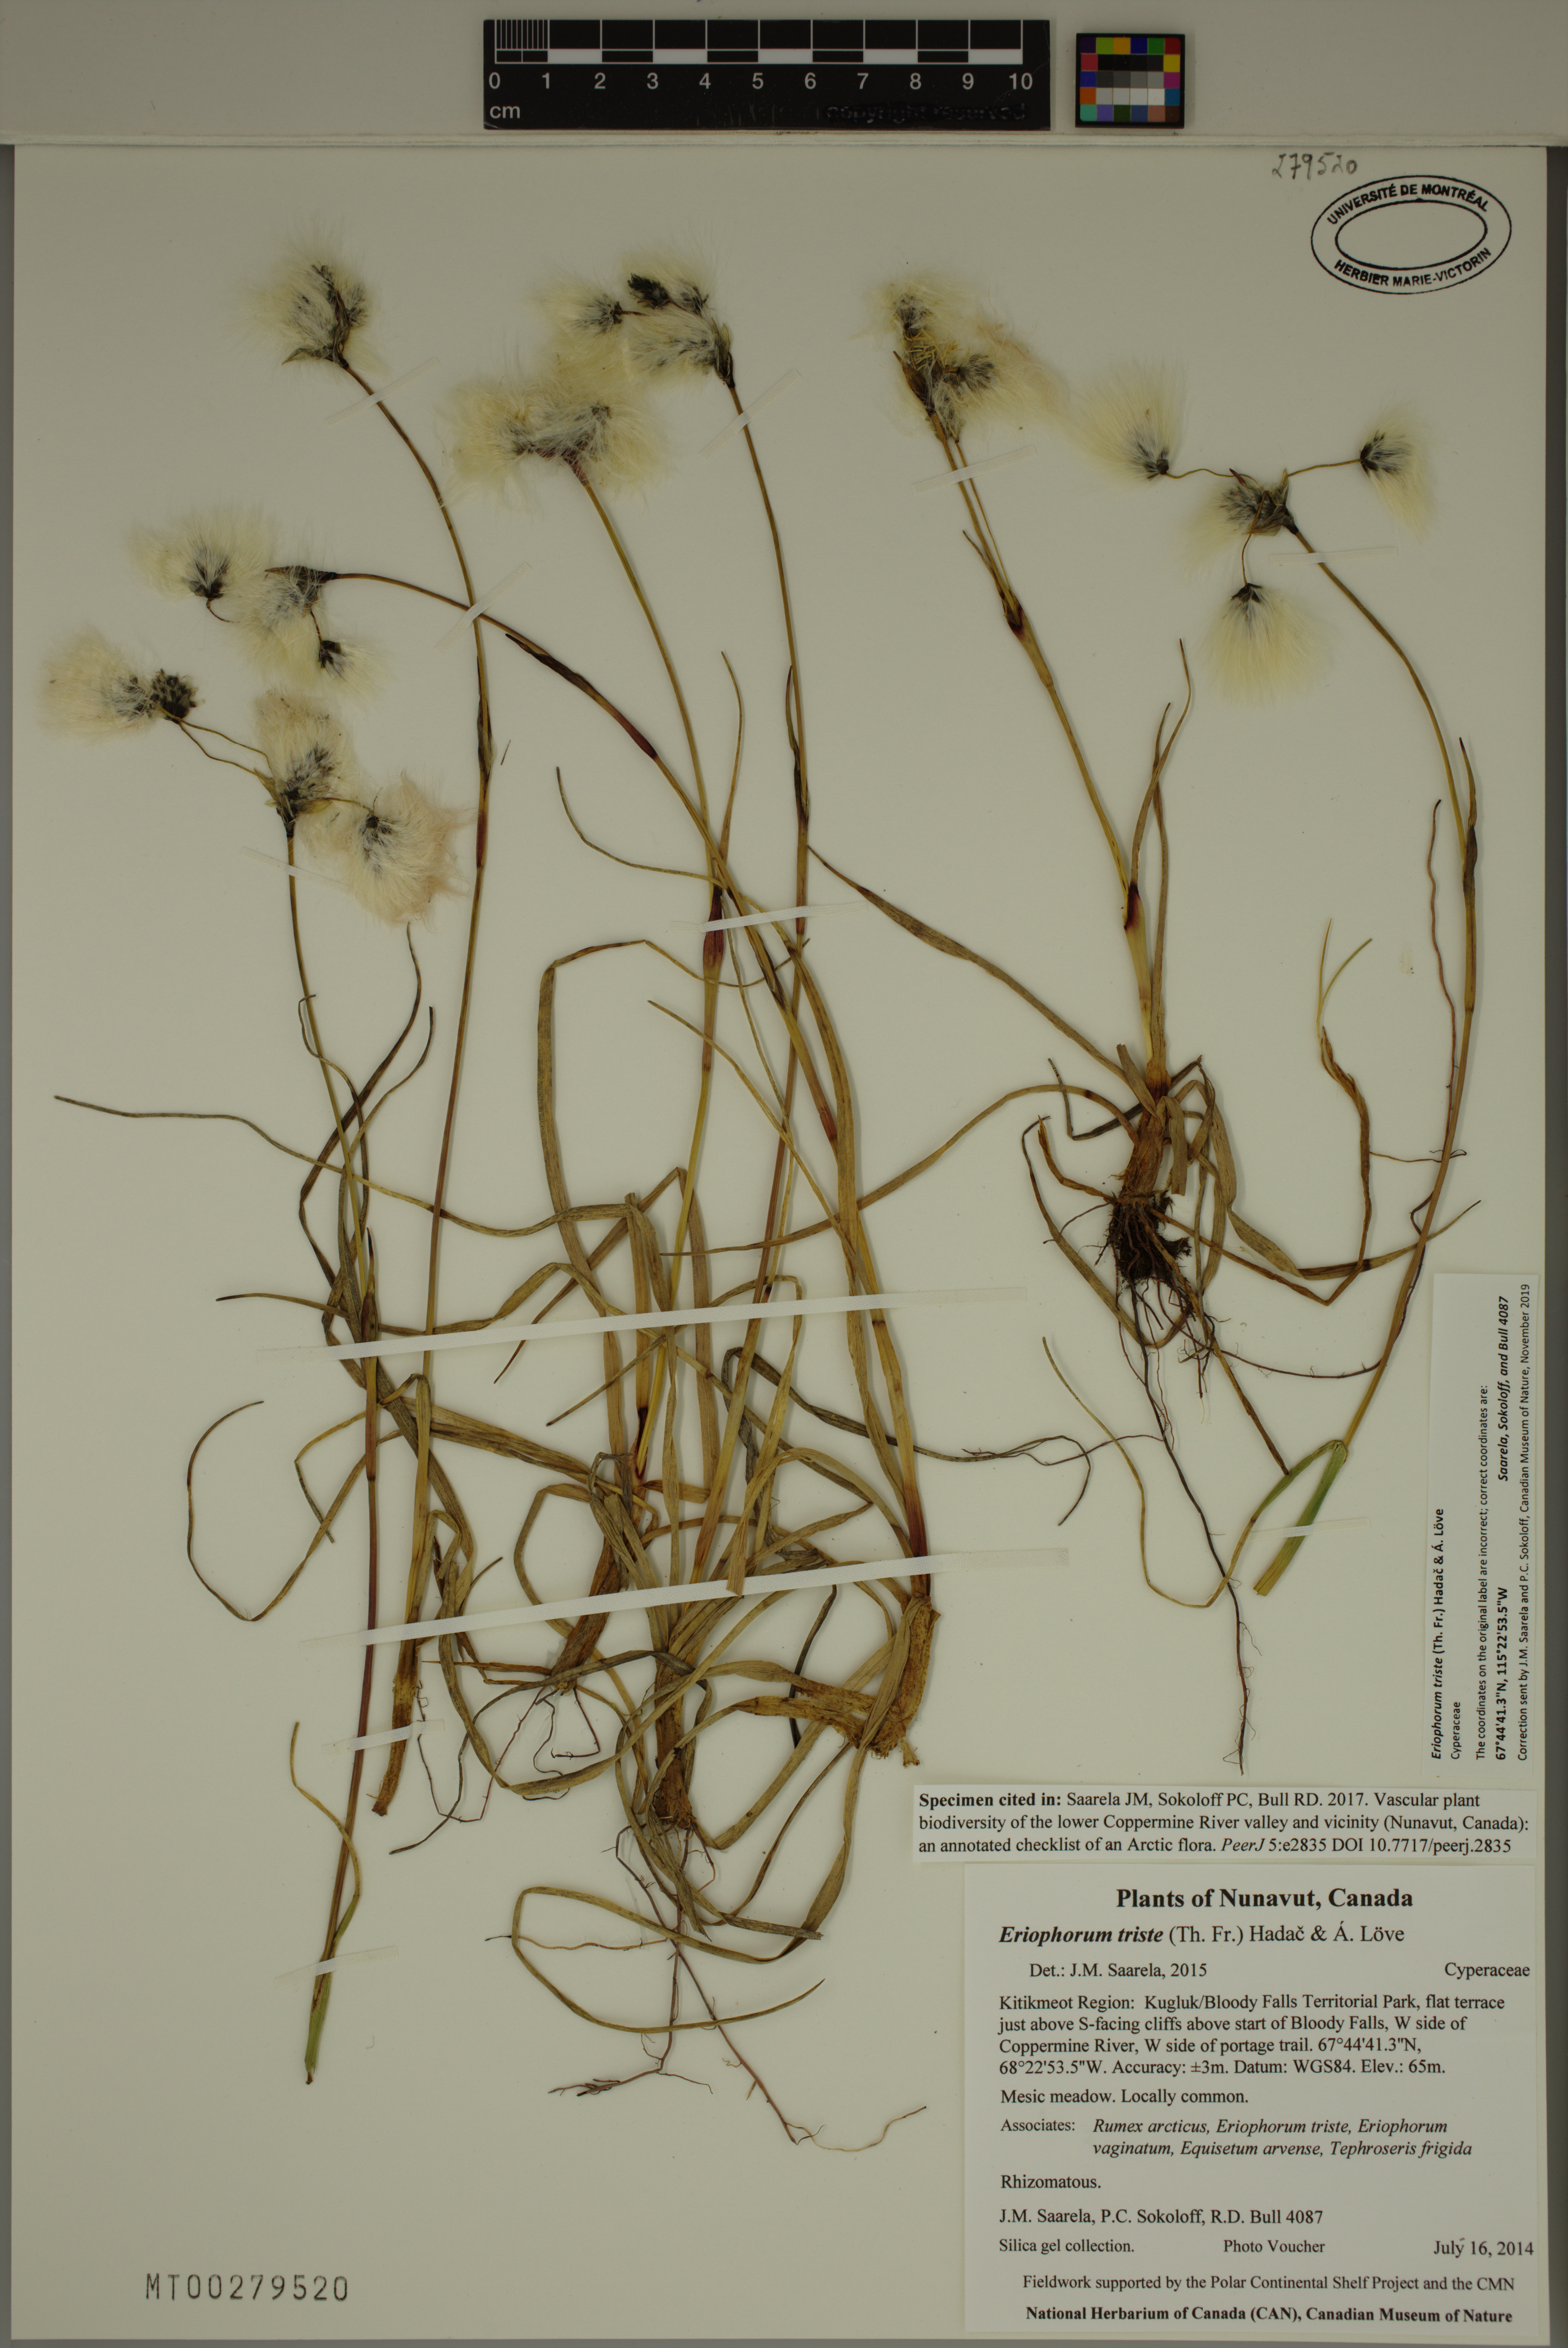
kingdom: Plantae
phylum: Tracheophyta
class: Liliopsida
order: Poales
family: Cyperaceae
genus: Eriophorum
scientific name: Eriophorum triste
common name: Tall cottongrass
